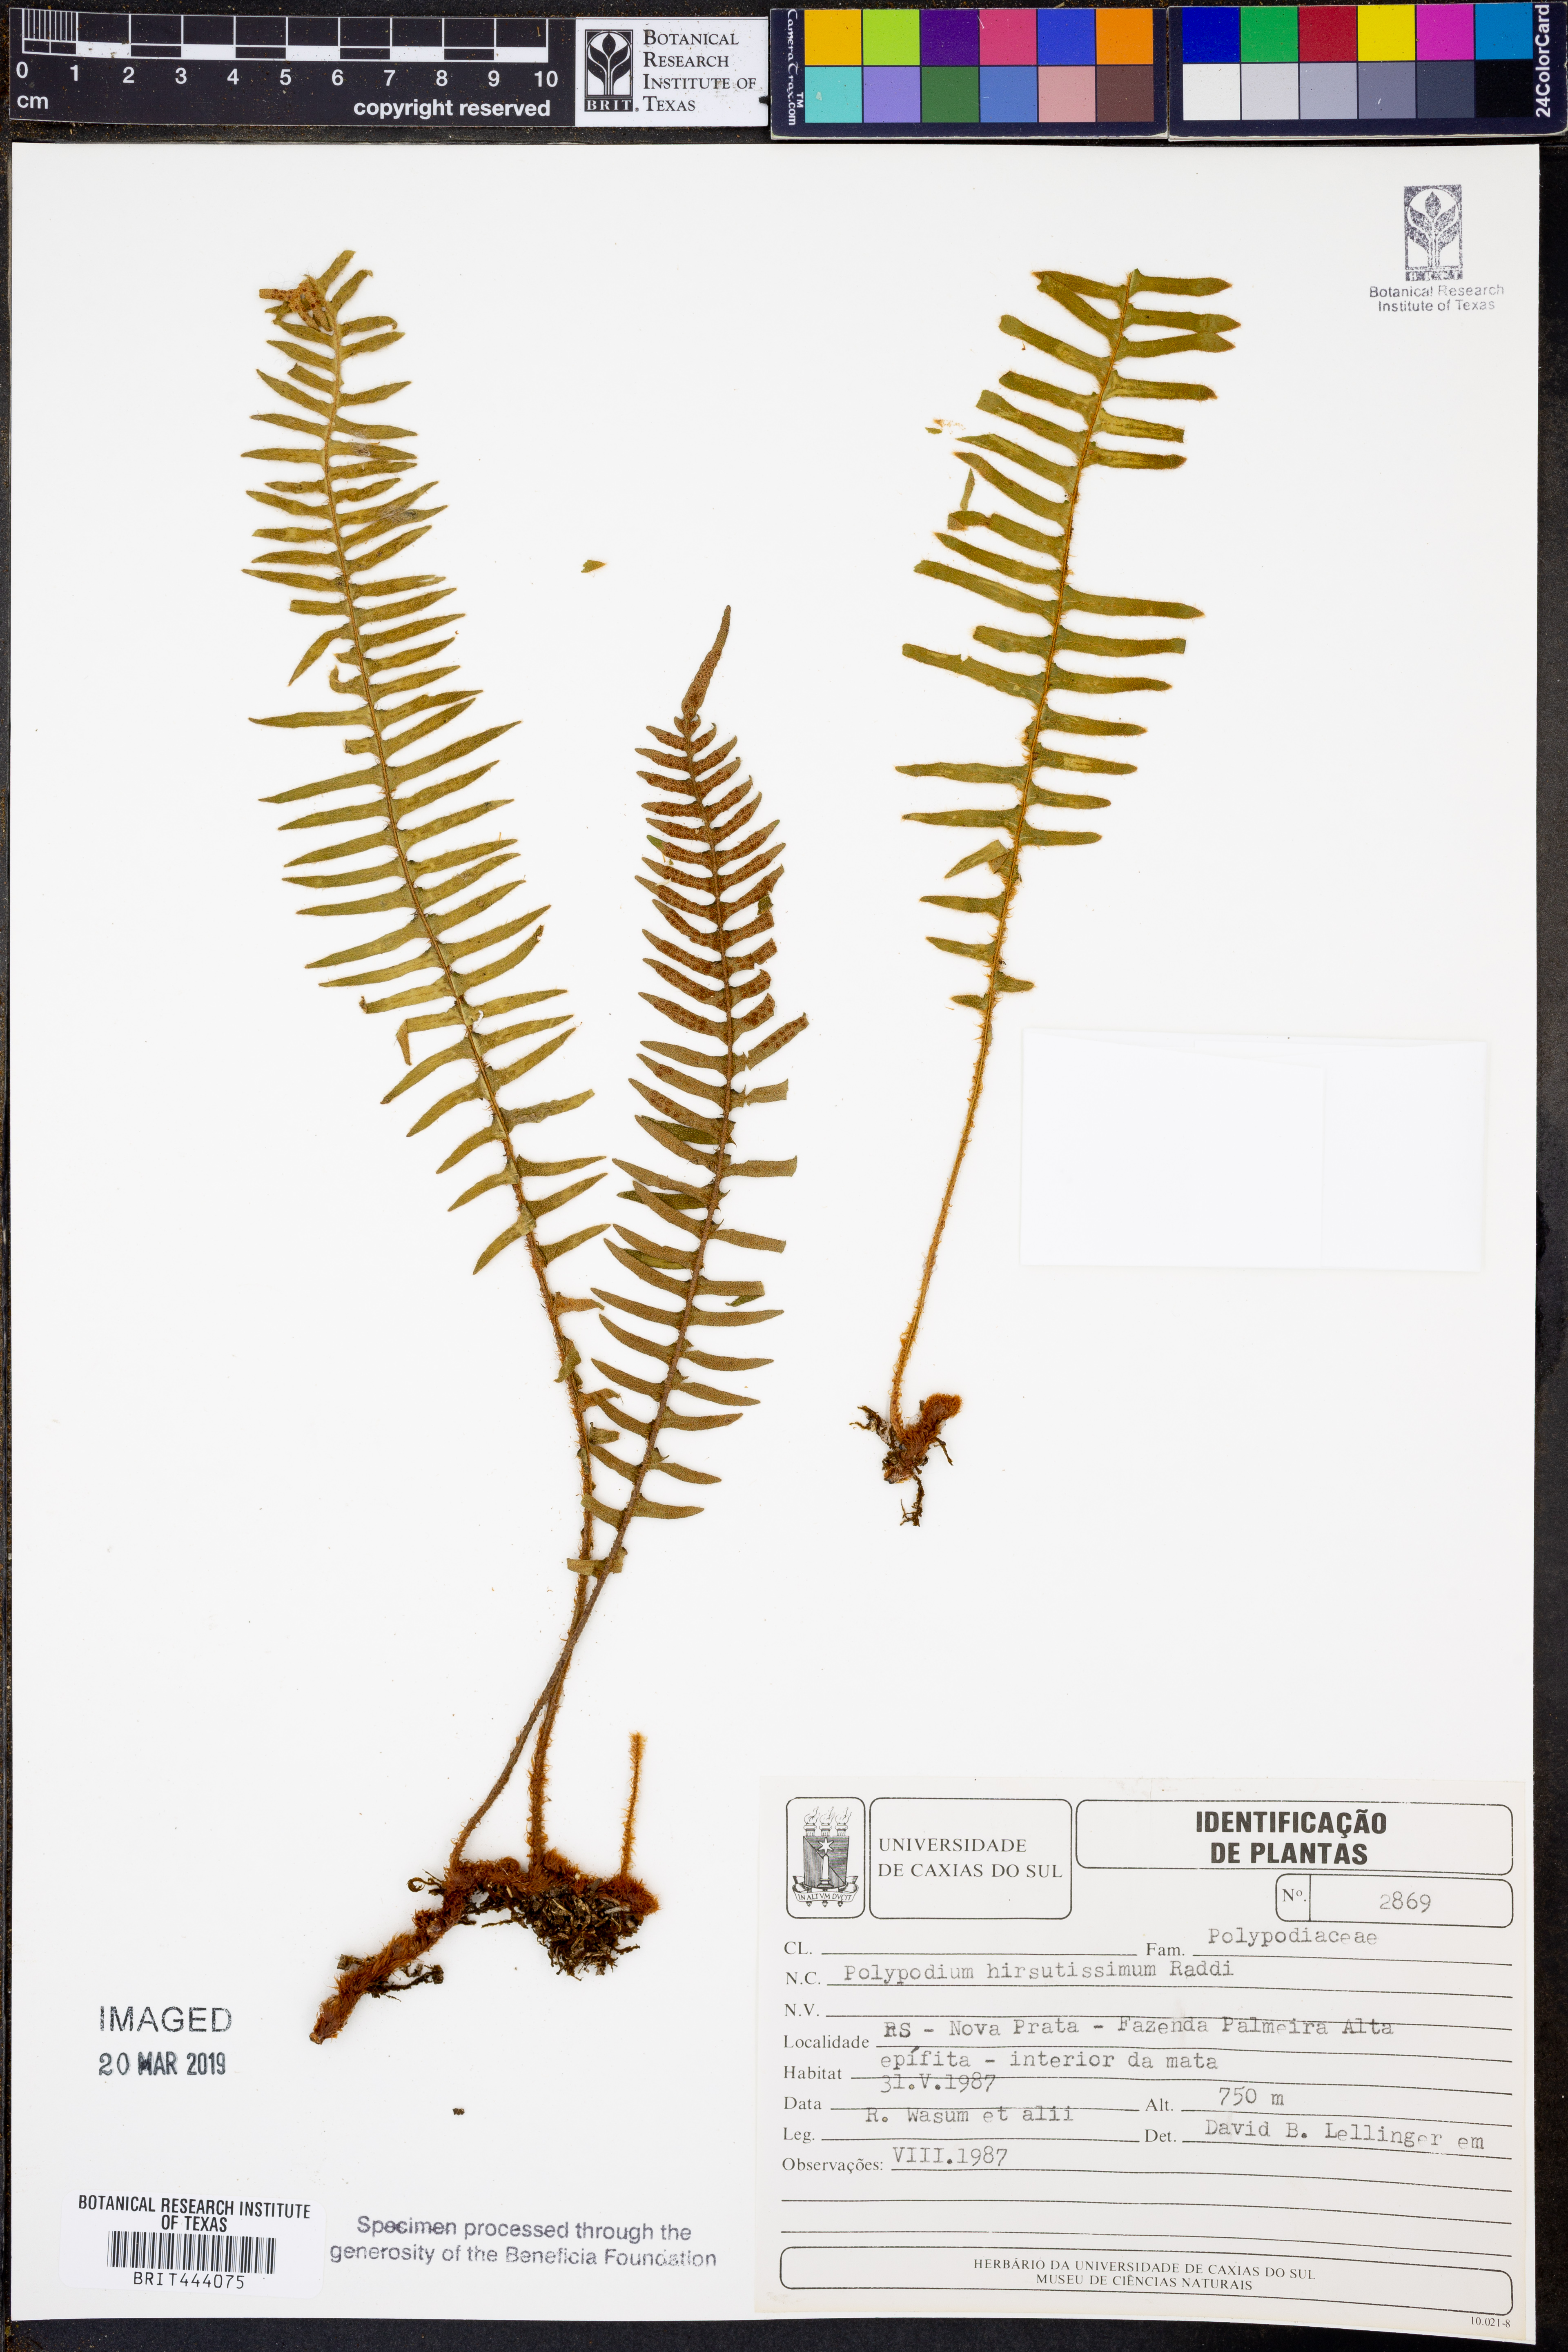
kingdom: Plantae
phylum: Tracheophyta
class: Polypodiopsida
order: Polypodiales
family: Polypodiaceae
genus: Pleopeltis
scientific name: Pleopeltis hirsutissima
